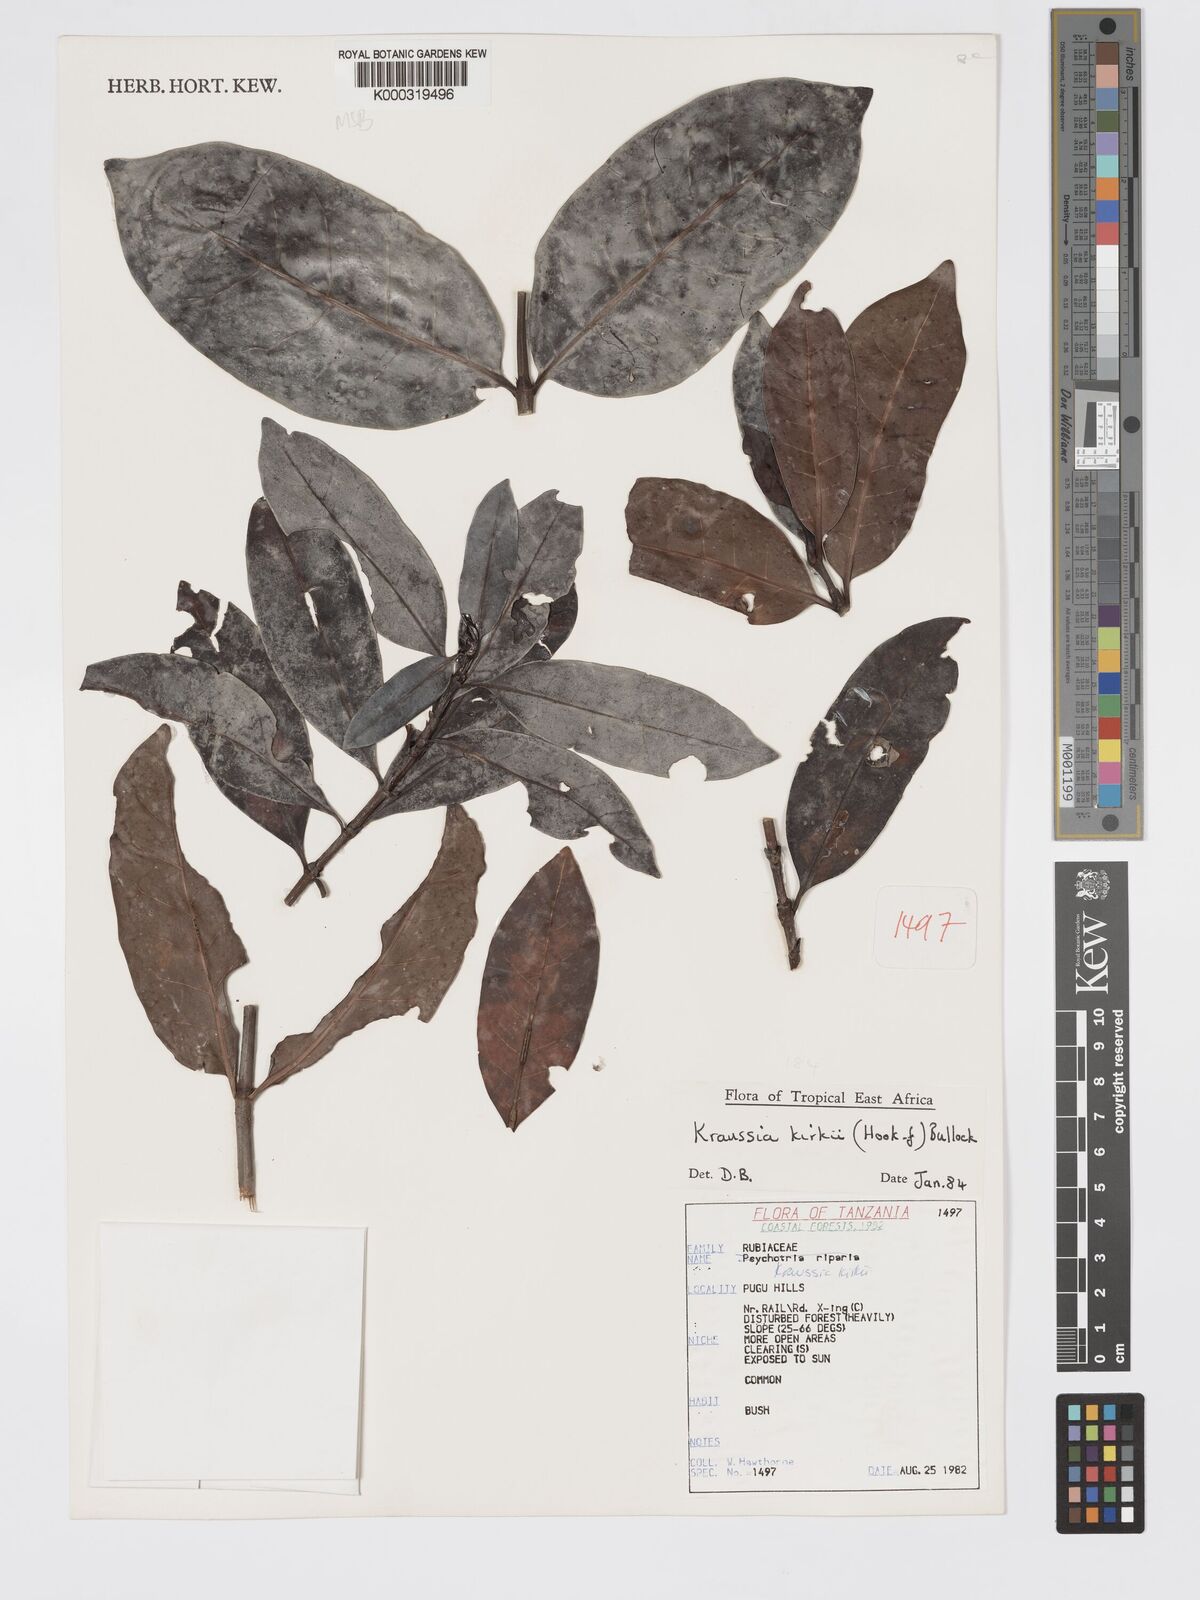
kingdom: Plantae
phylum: Tracheophyta
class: Magnoliopsida
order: Gentianales
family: Rubiaceae
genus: Kraussia
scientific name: Kraussia kirkii
